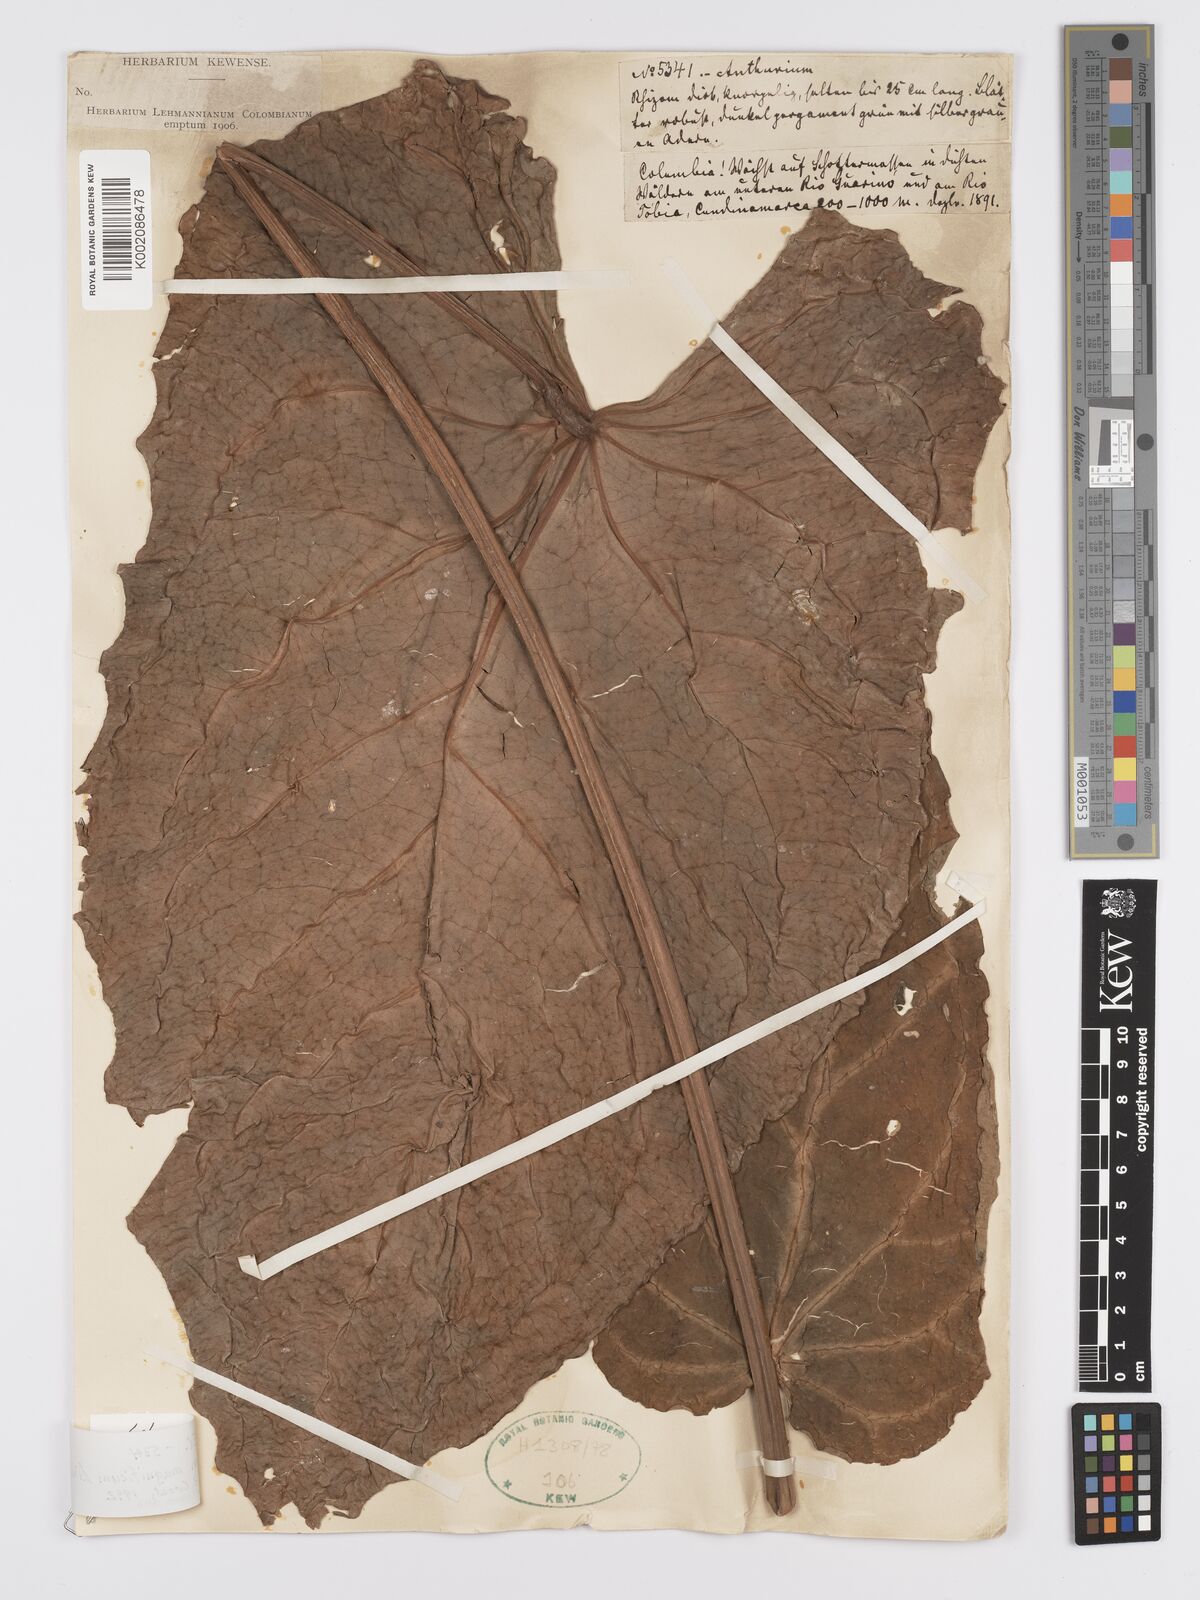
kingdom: Plantae
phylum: Tracheophyta
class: Liliopsida
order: Alismatales
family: Araceae
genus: Anthurium
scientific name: Anthurium magnificum
